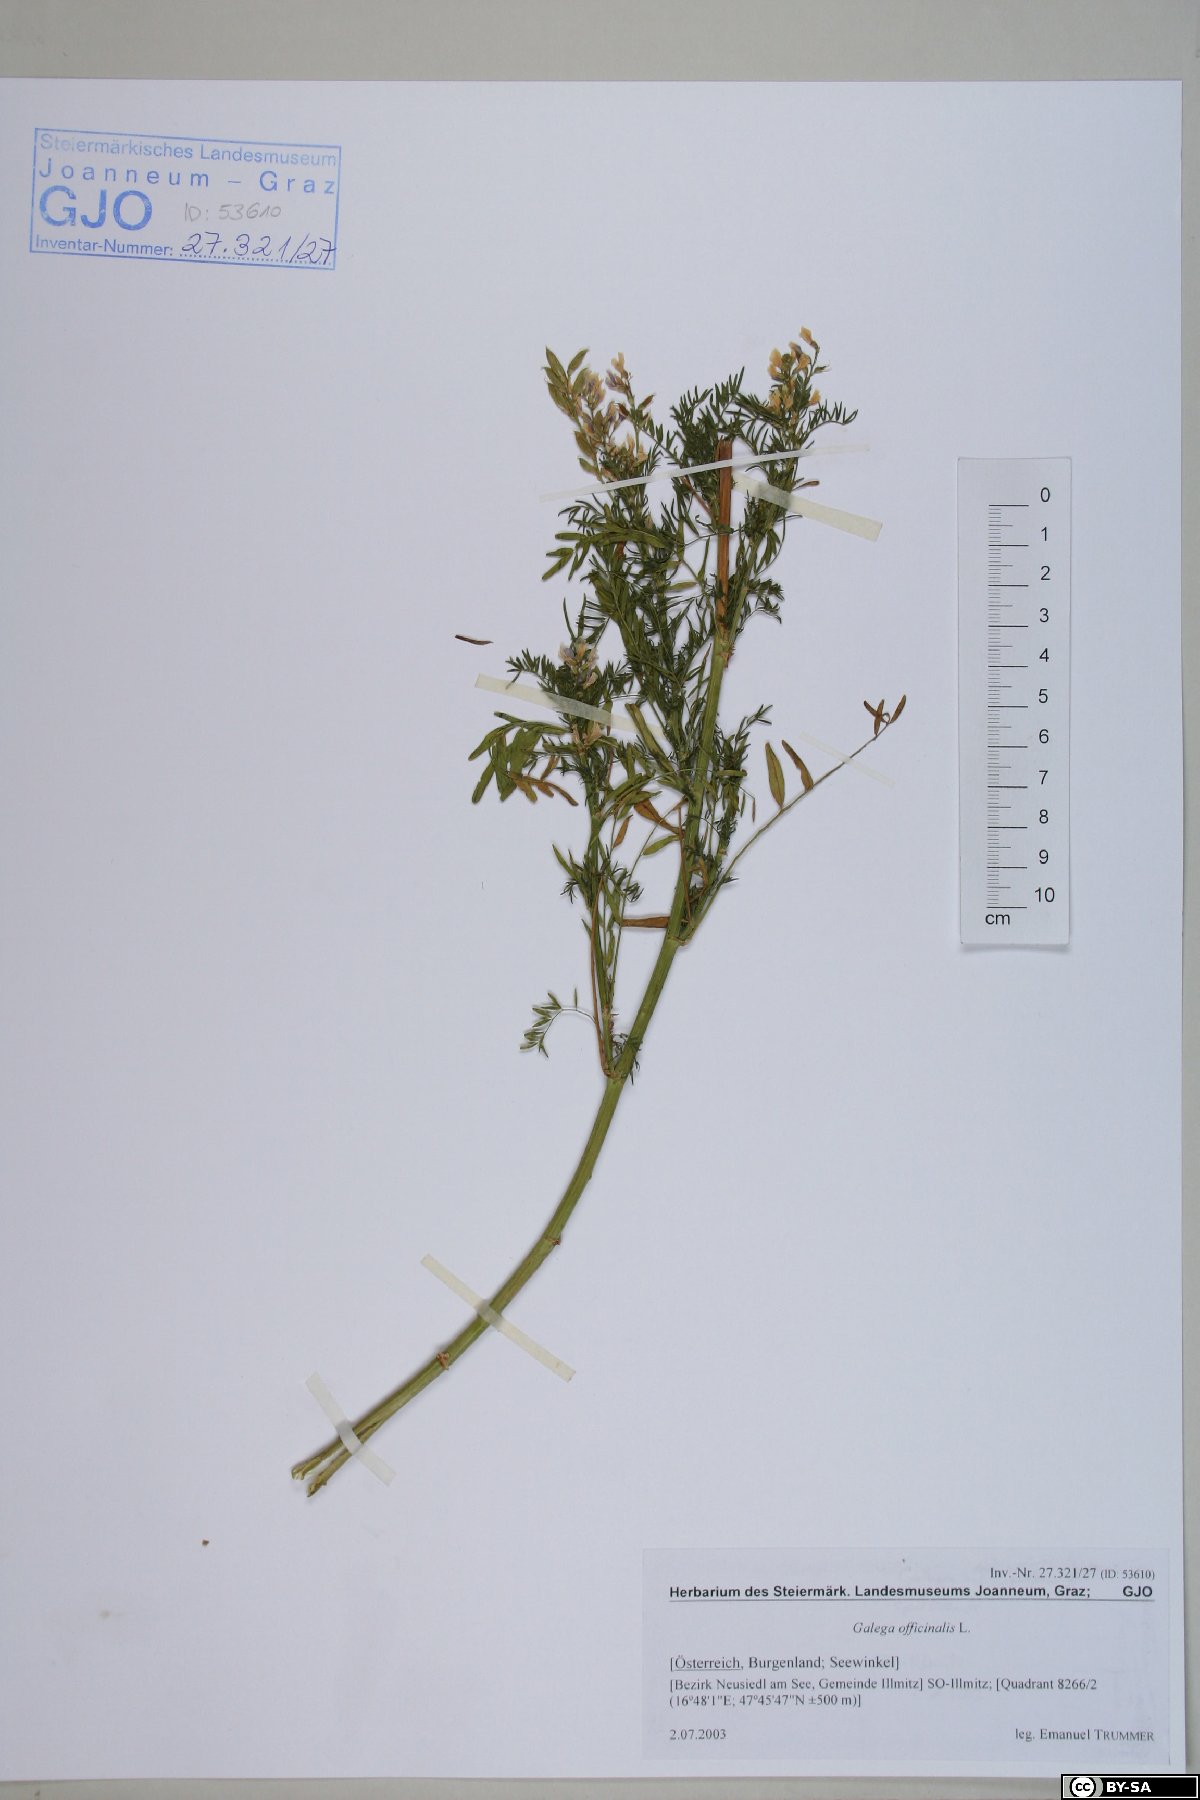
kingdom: Plantae
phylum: Tracheophyta
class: Magnoliopsida
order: Fabales
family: Fabaceae
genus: Astragalus
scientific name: Astragalus sulcatus
